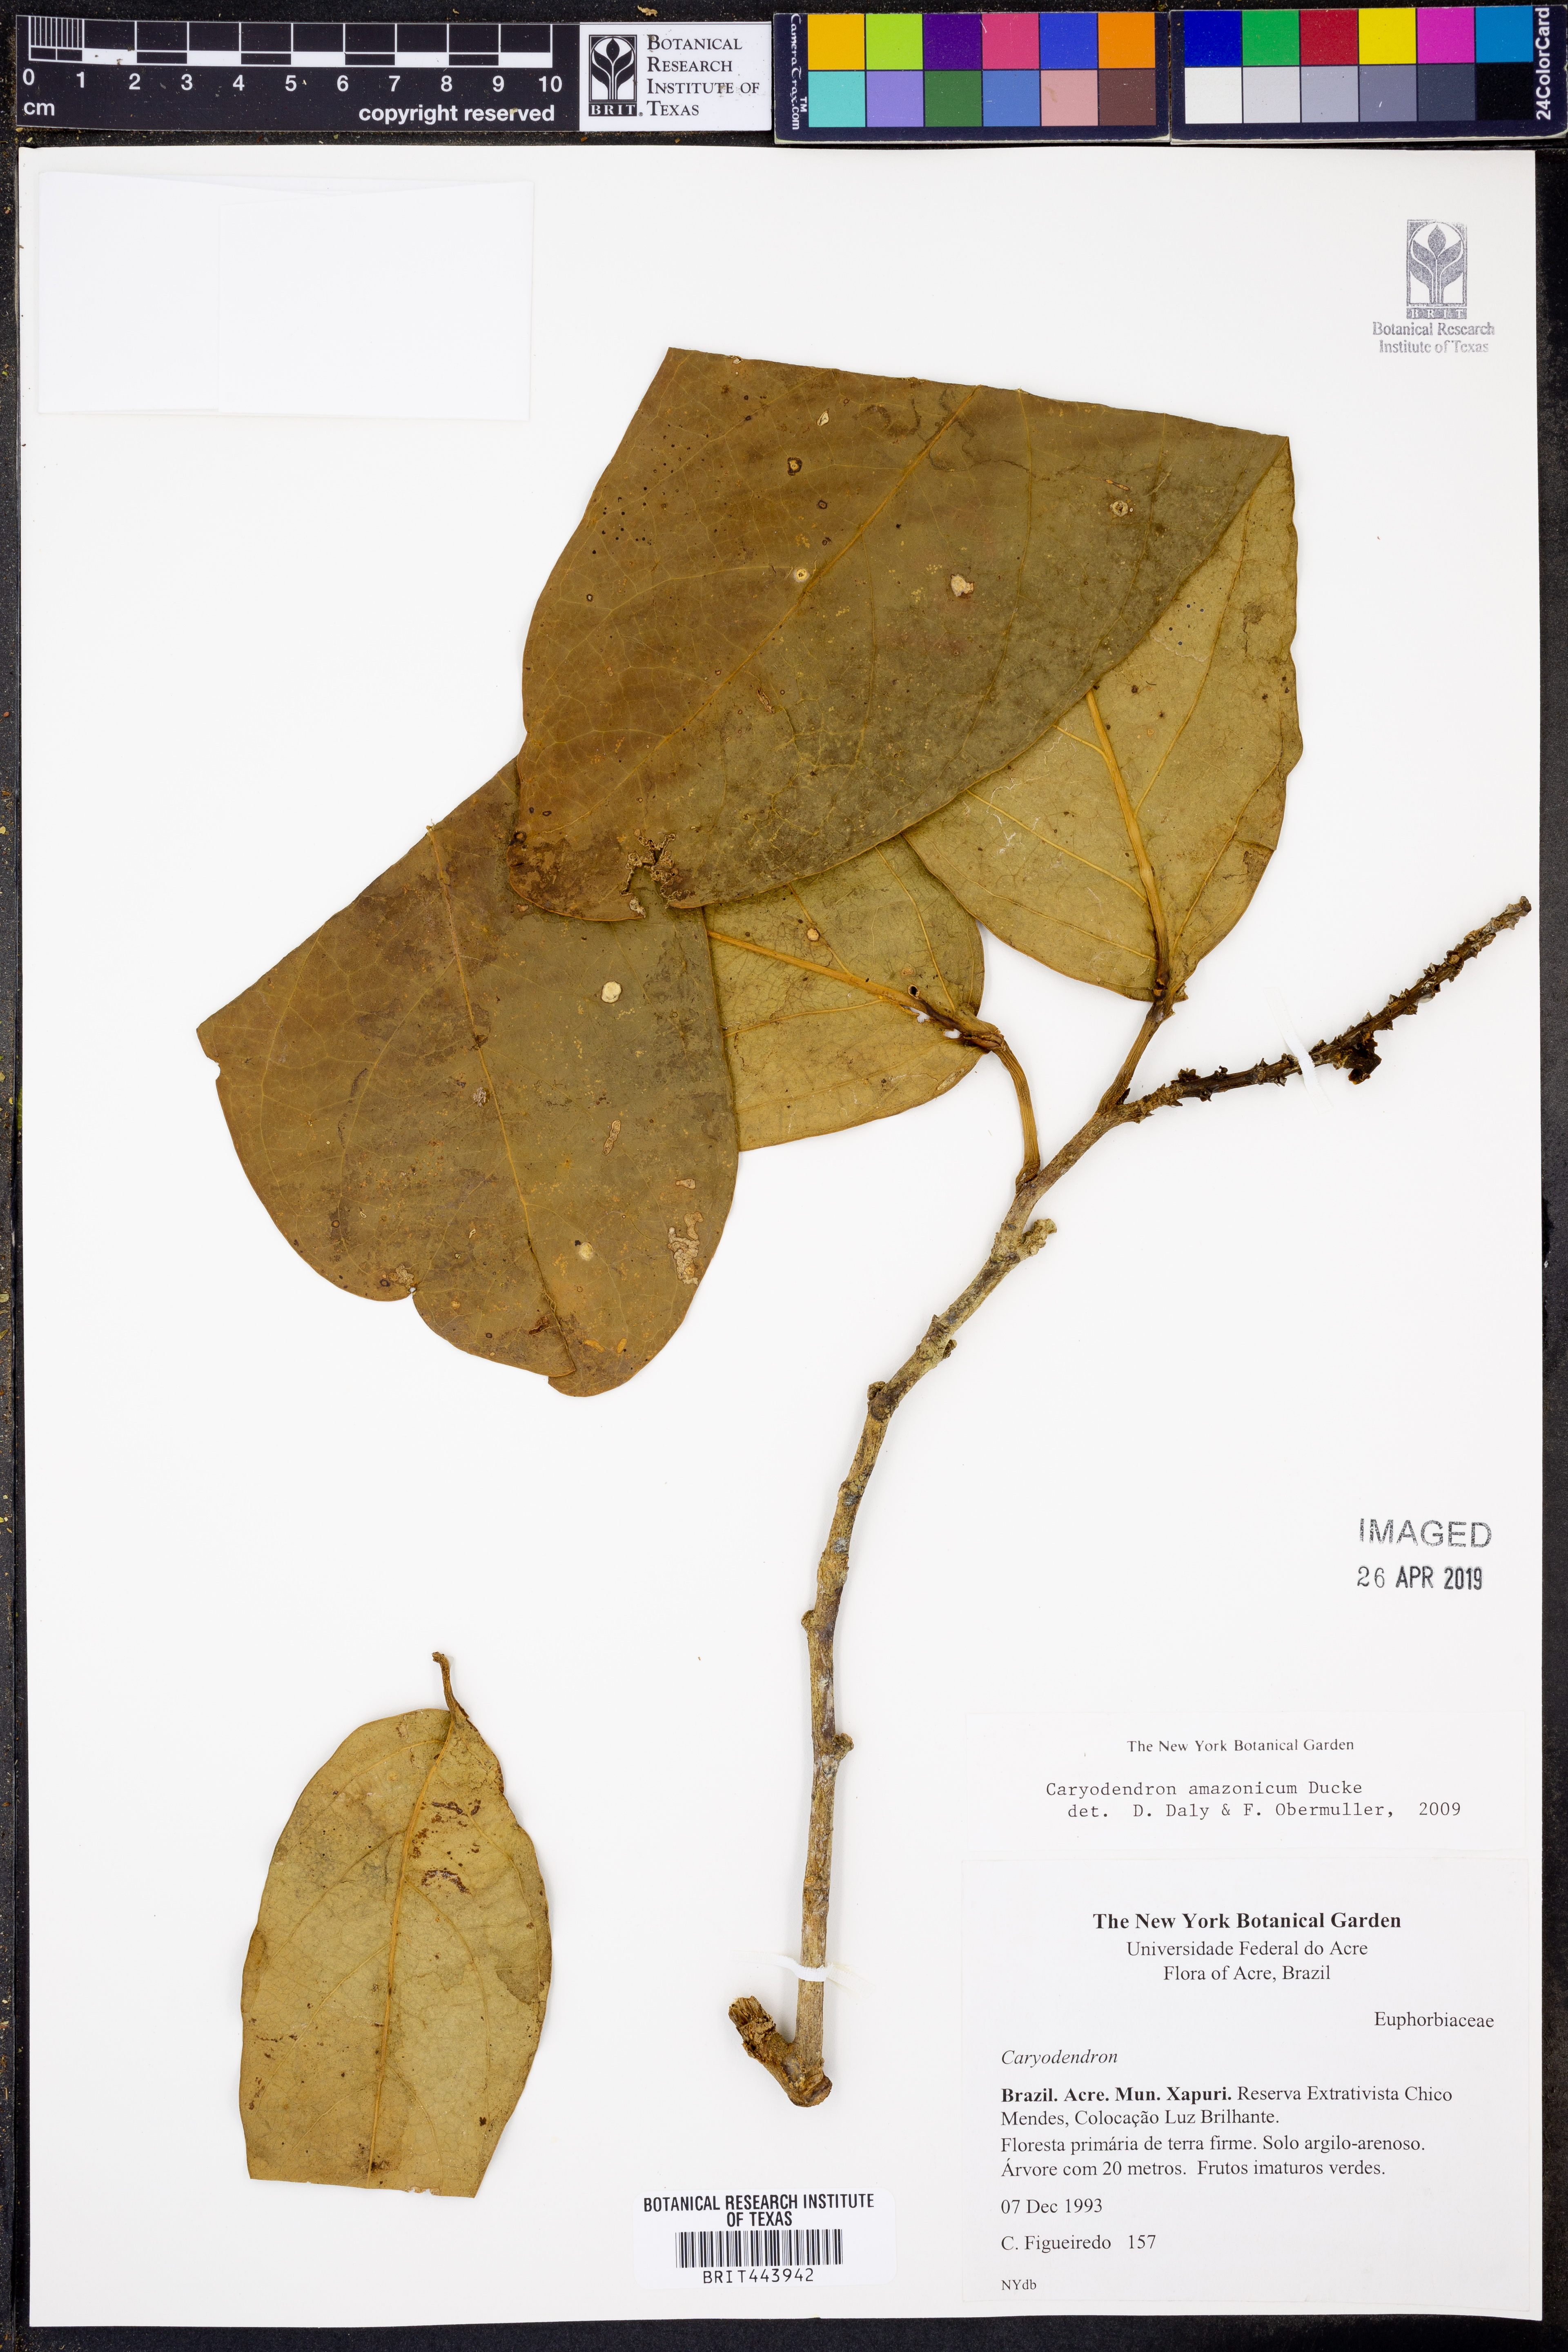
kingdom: Plantae
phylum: Tracheophyta
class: Magnoliopsida
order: Malpighiales
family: Euphorbiaceae
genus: Caryodendron
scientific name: Caryodendron amazonicum
